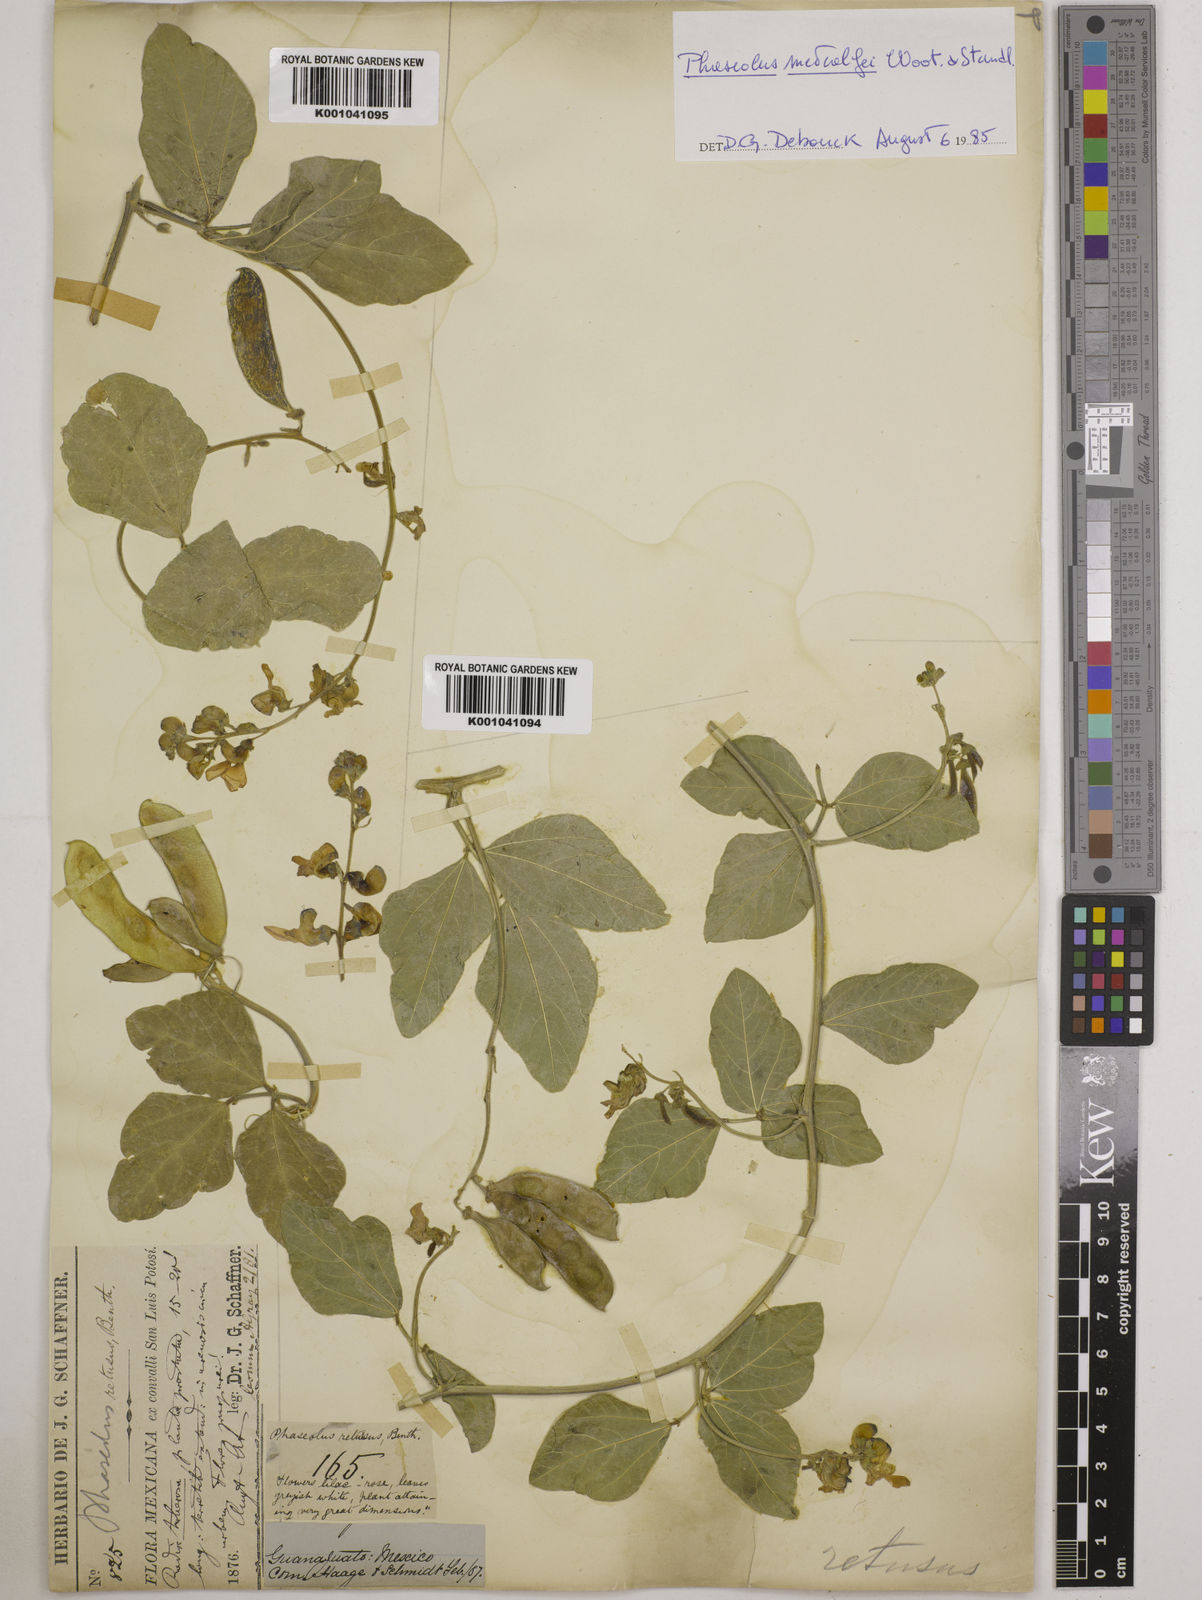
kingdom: Plantae
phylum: Tracheophyta
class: Magnoliopsida
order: Fabales
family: Fabaceae
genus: Phaseolus
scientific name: Phaseolus maculatus
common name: Metcalfe bean
